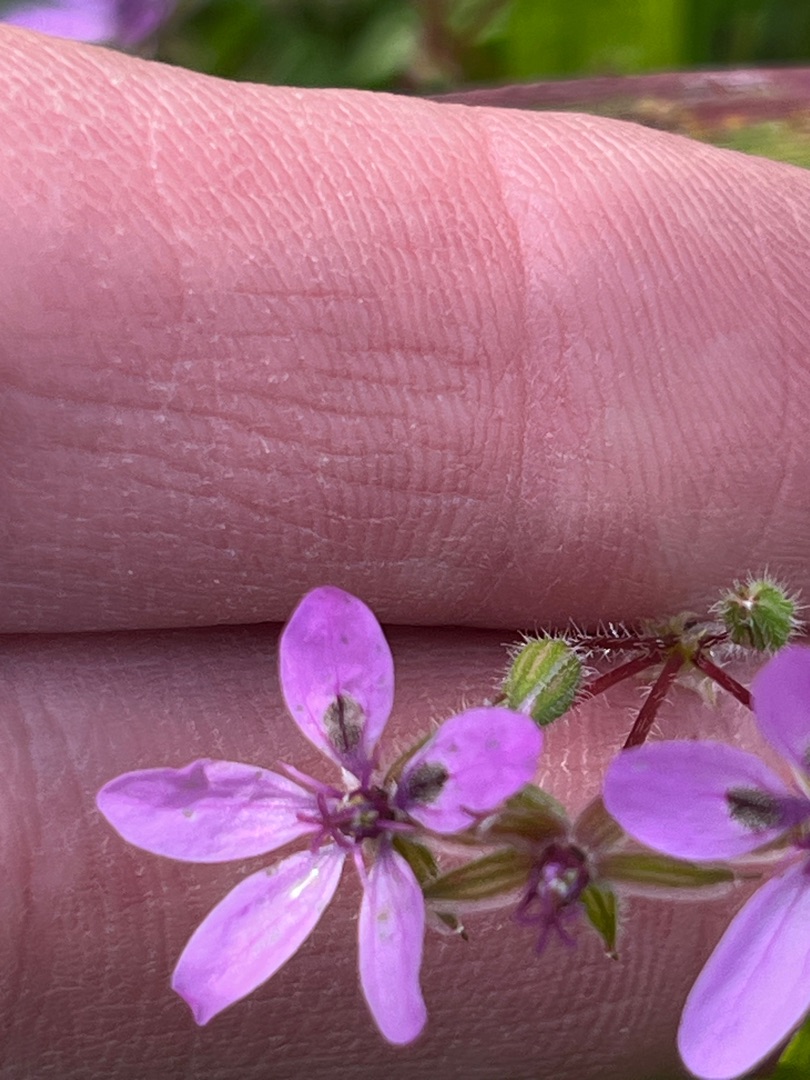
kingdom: Plantae
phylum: Tracheophyta
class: Magnoliopsida
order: Geraniales
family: Geraniaceae
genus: Erodium
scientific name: Erodium cicutarium
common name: Hejrenæb
